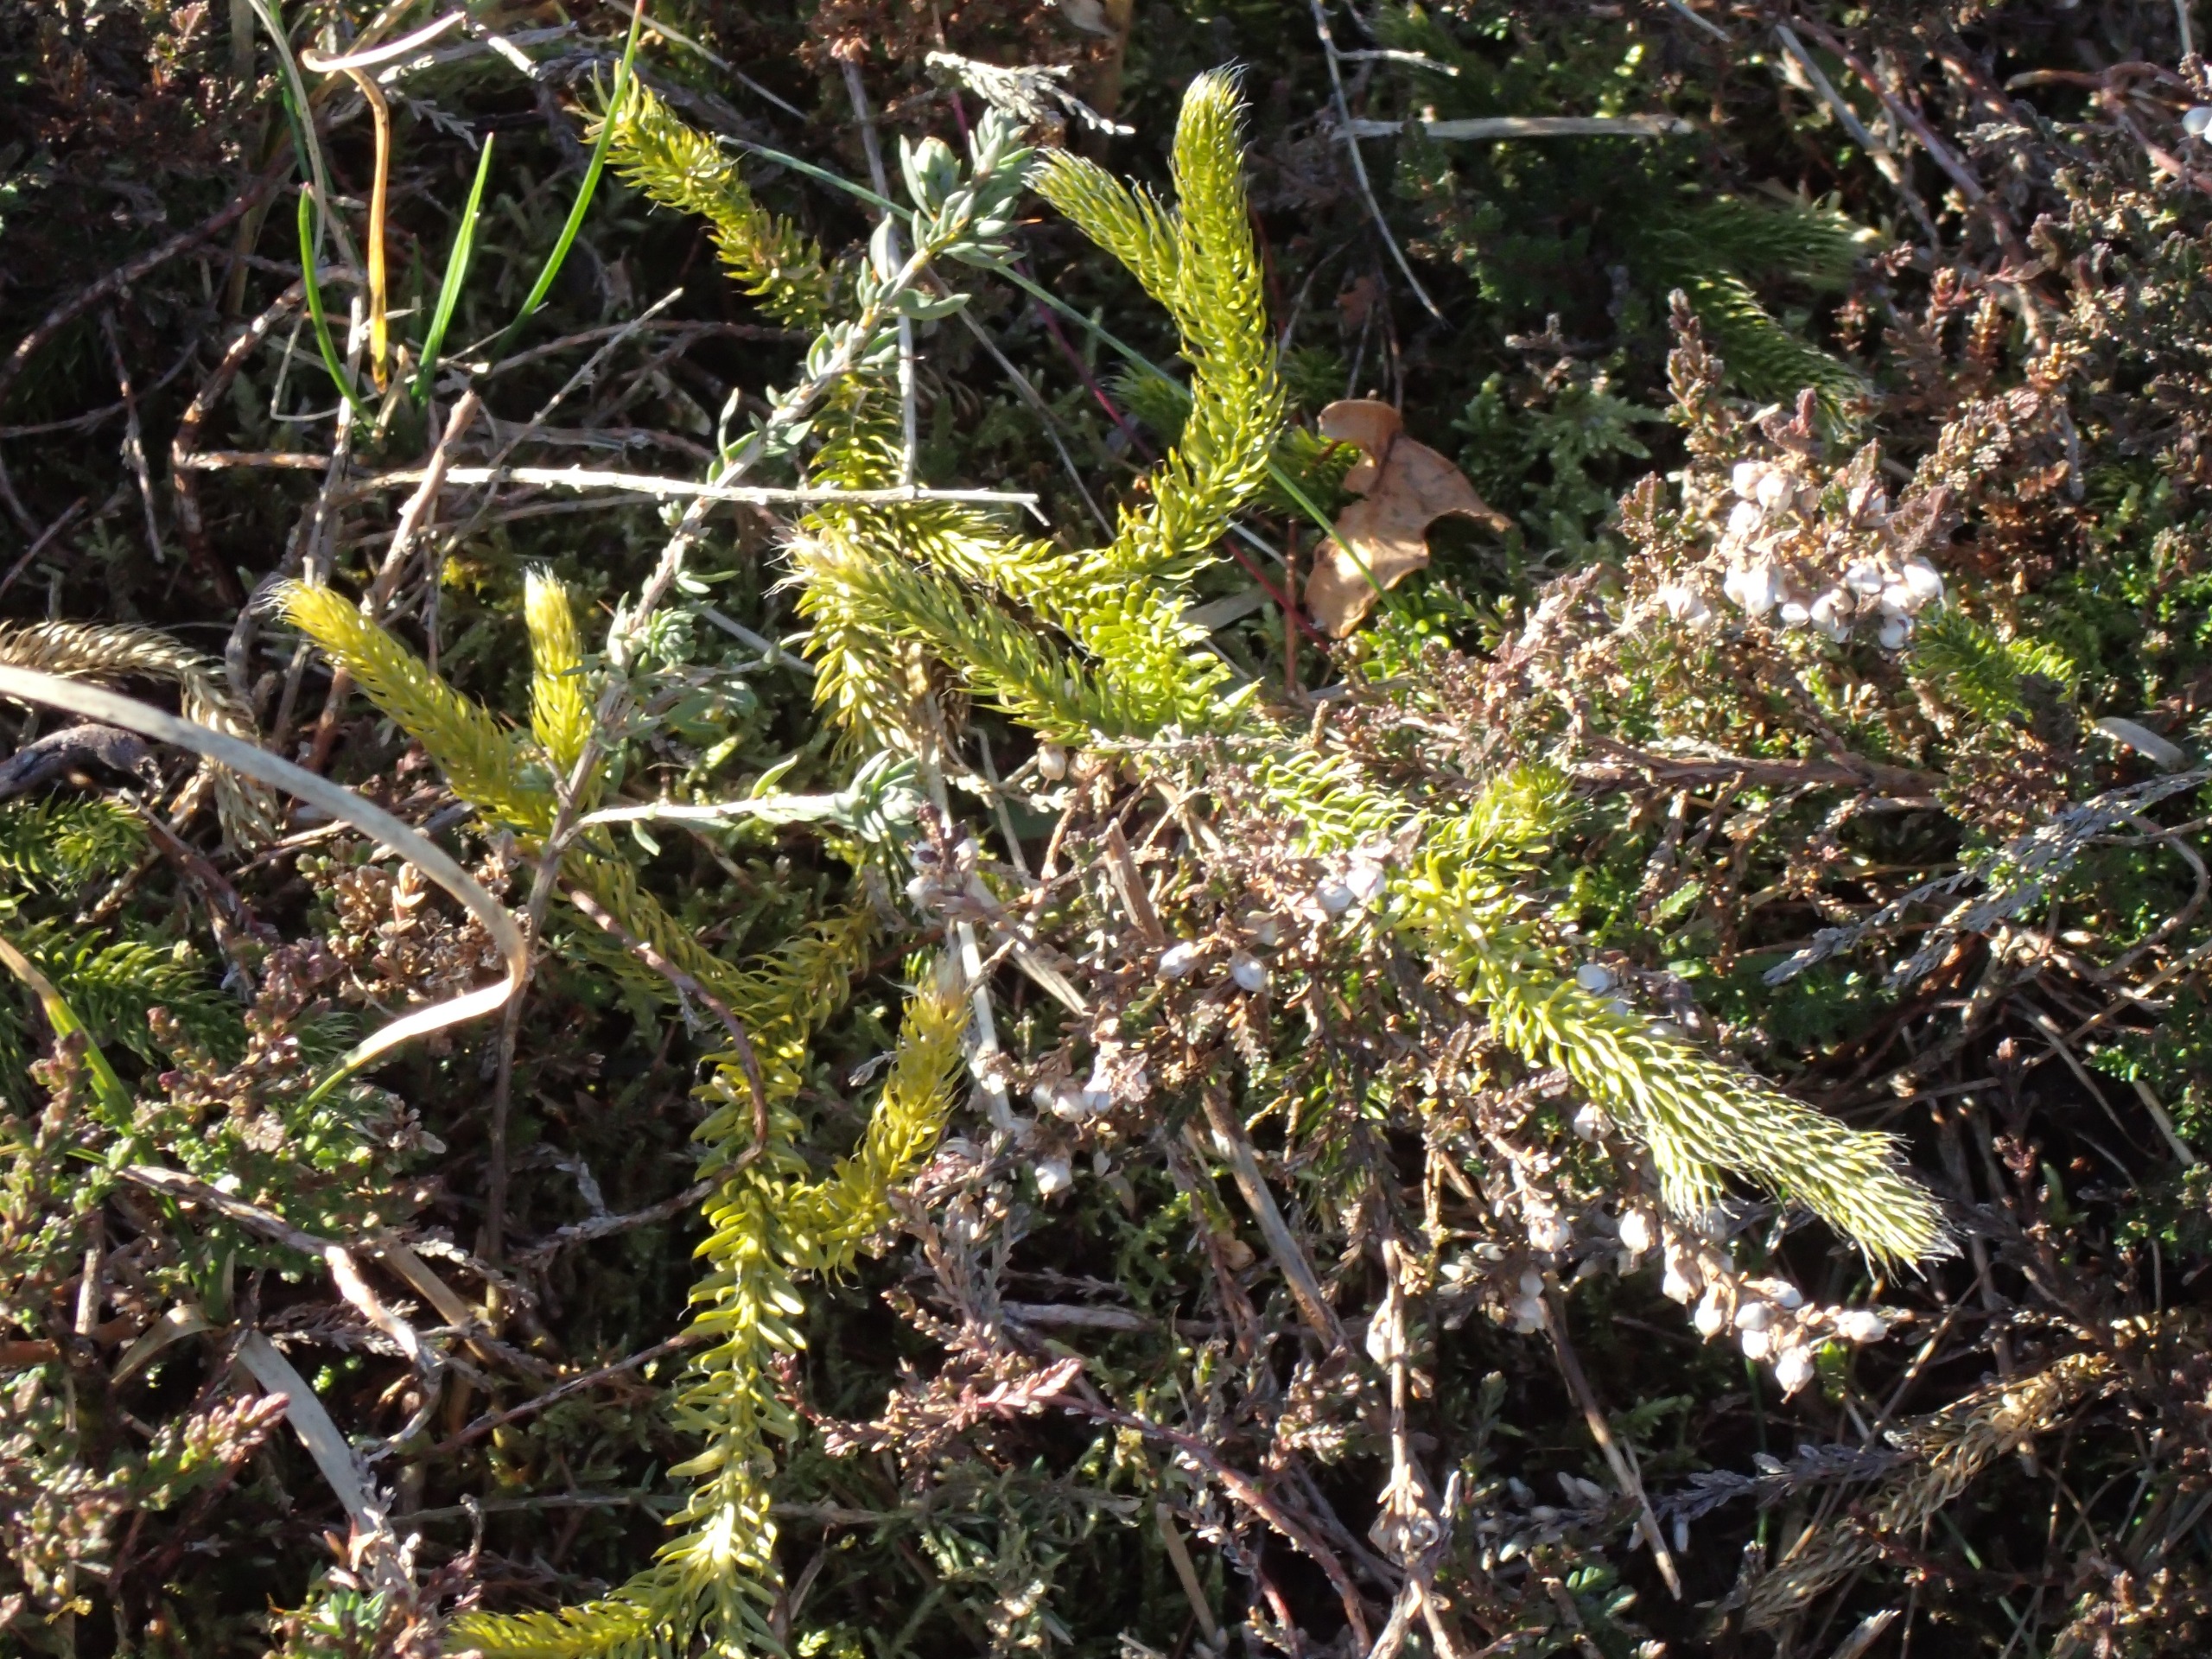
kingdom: Plantae
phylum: Tracheophyta
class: Lycopodiopsida
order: Lycopodiales
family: Lycopodiaceae
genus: Lycopodium
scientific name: Lycopodium clavatum
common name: Almindelig ulvefod
